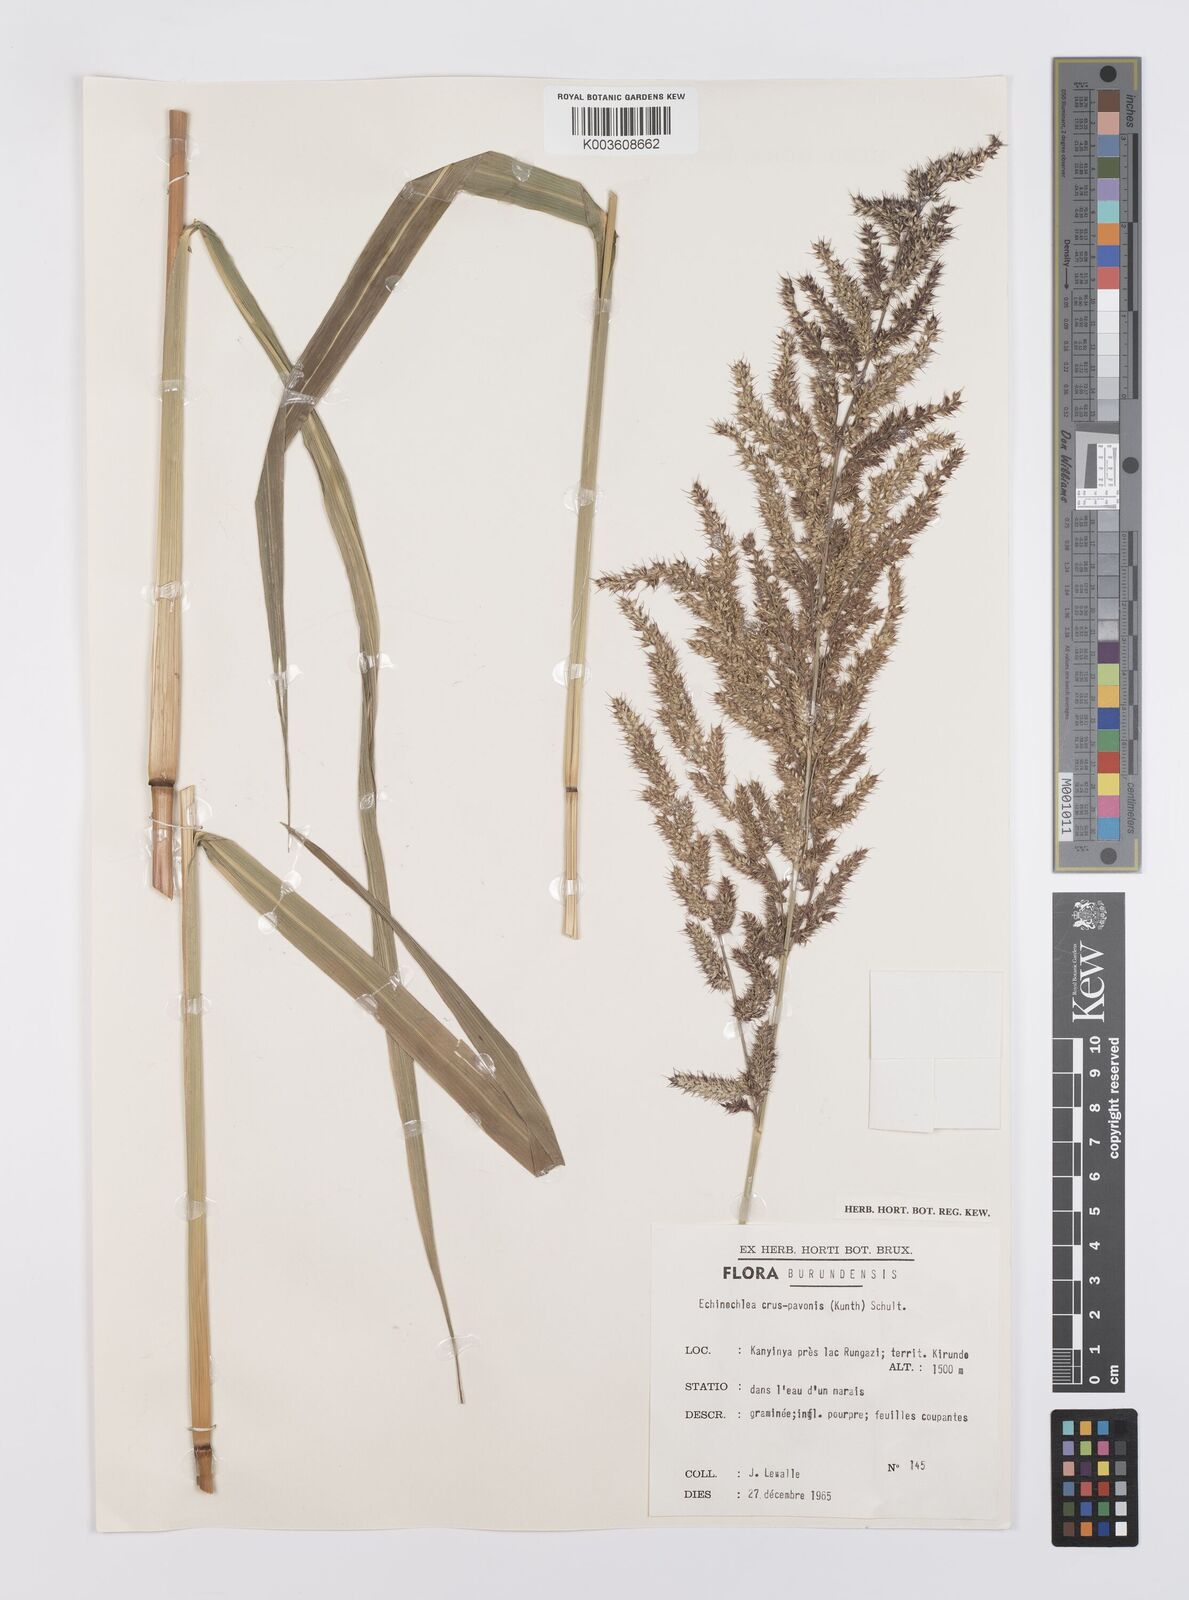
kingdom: Plantae
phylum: Tracheophyta
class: Liliopsida
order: Poales
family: Poaceae
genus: Echinochloa
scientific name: Echinochloa crus-pavonis
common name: Gulf cockspur grass
